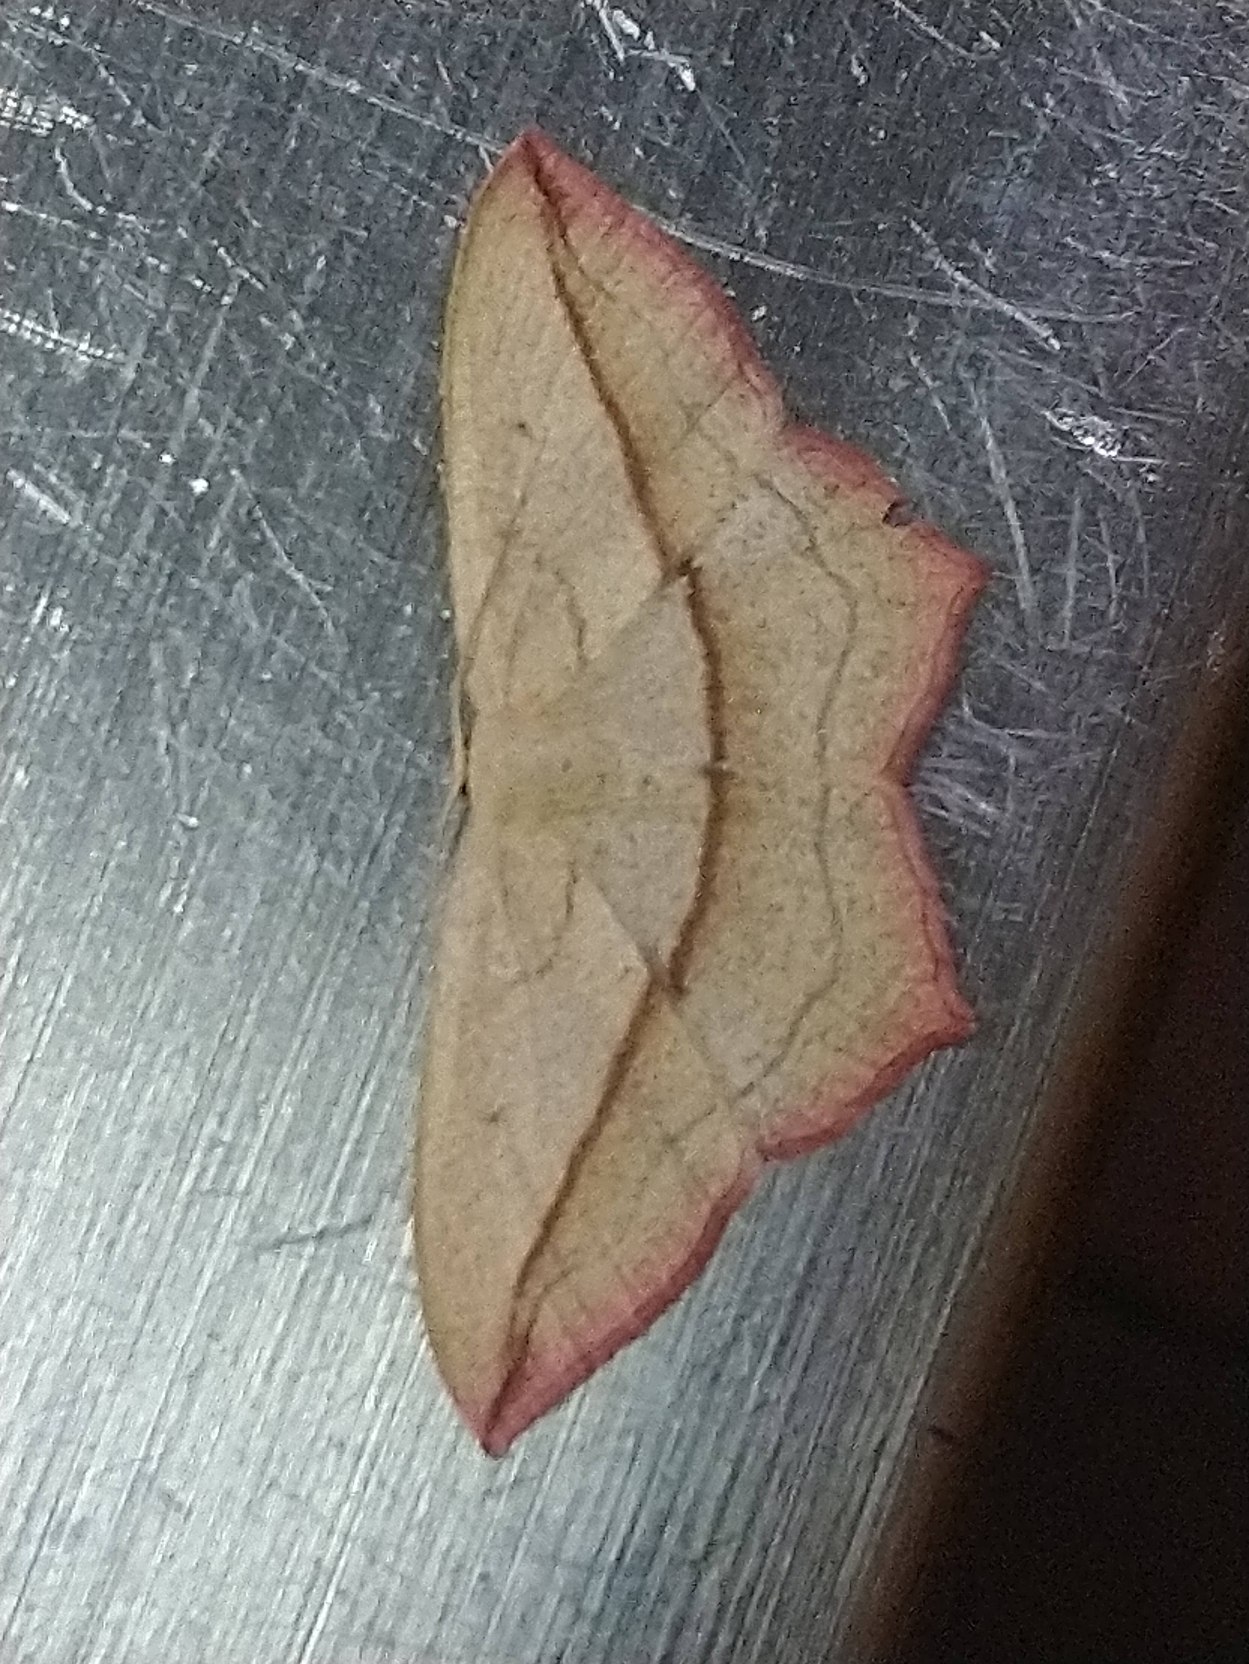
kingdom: Animalia
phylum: Arthropoda
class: Insecta
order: Lepidoptera
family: Geometridae
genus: Timandra
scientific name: Timandra comae
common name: Gul syremåler
